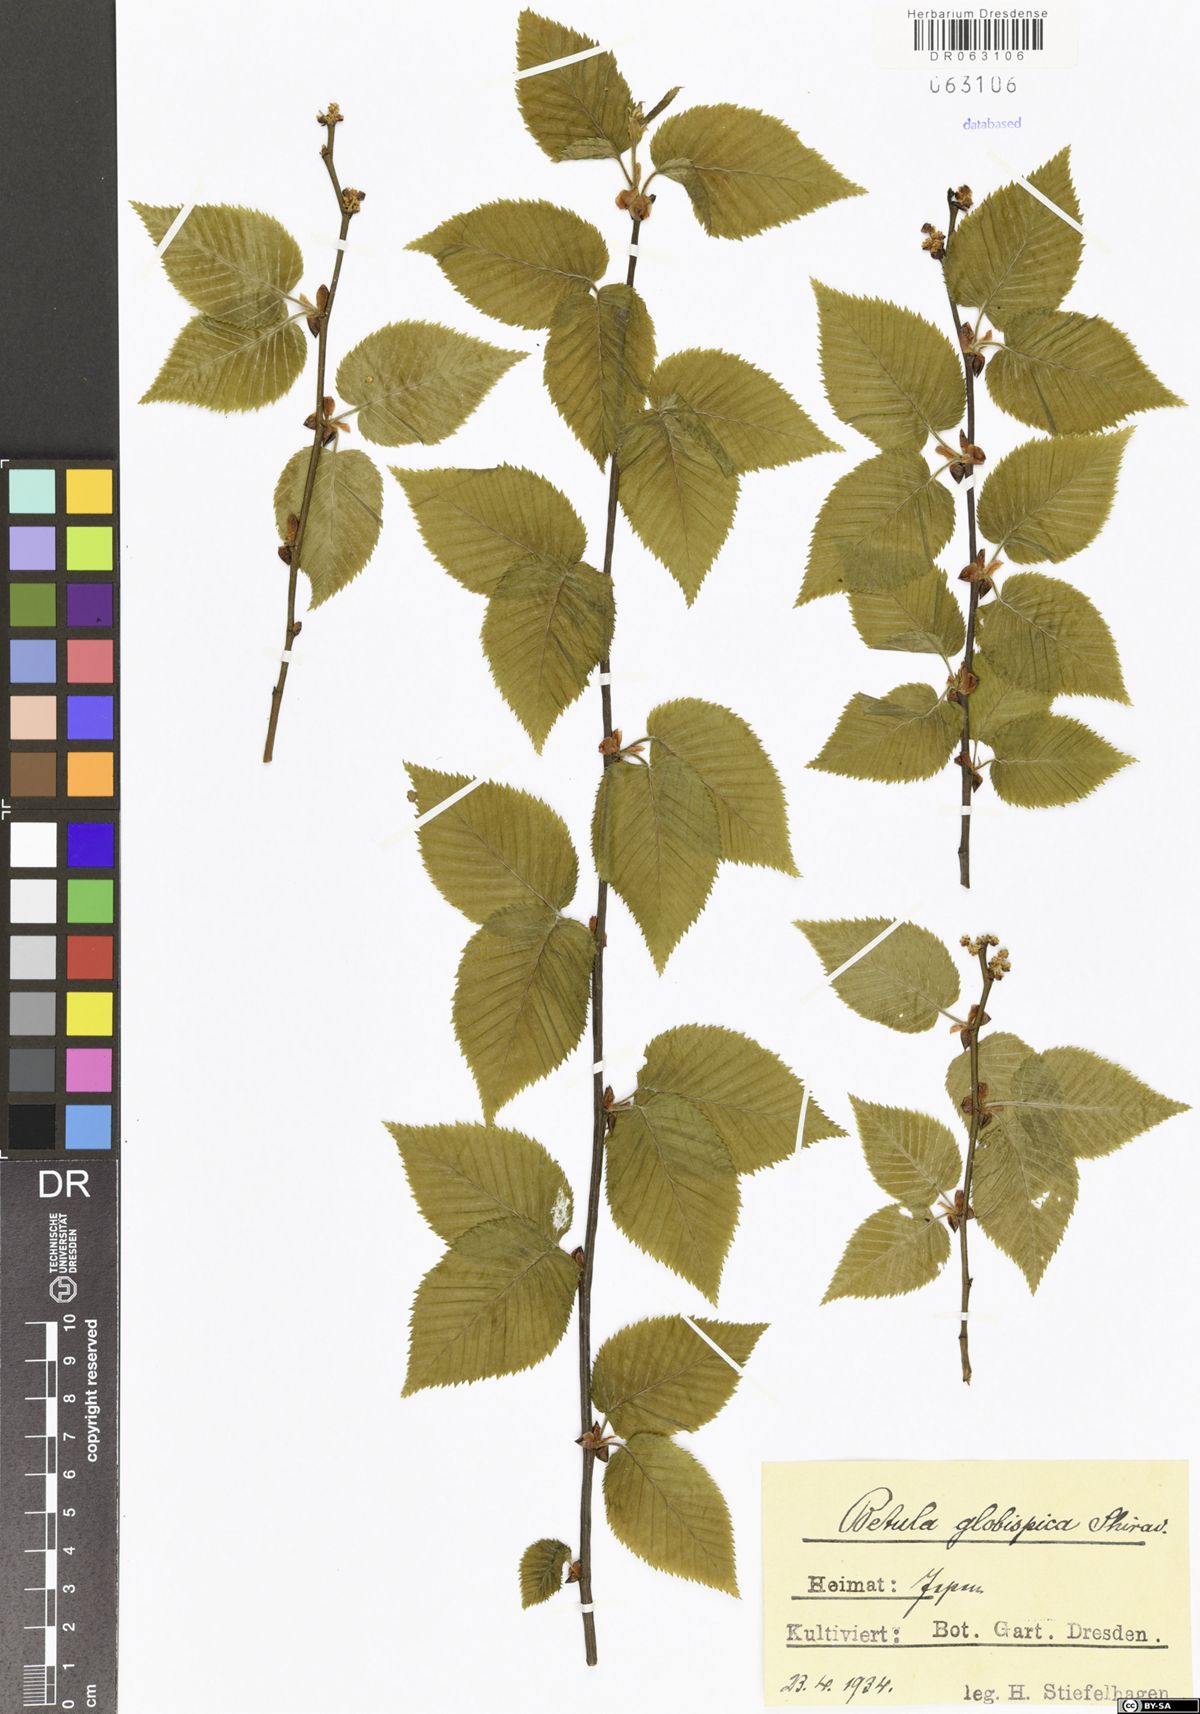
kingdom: Plantae
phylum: Tracheophyta
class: Magnoliopsida
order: Fagales
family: Betulaceae
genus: Betula
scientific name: Betula globispica
